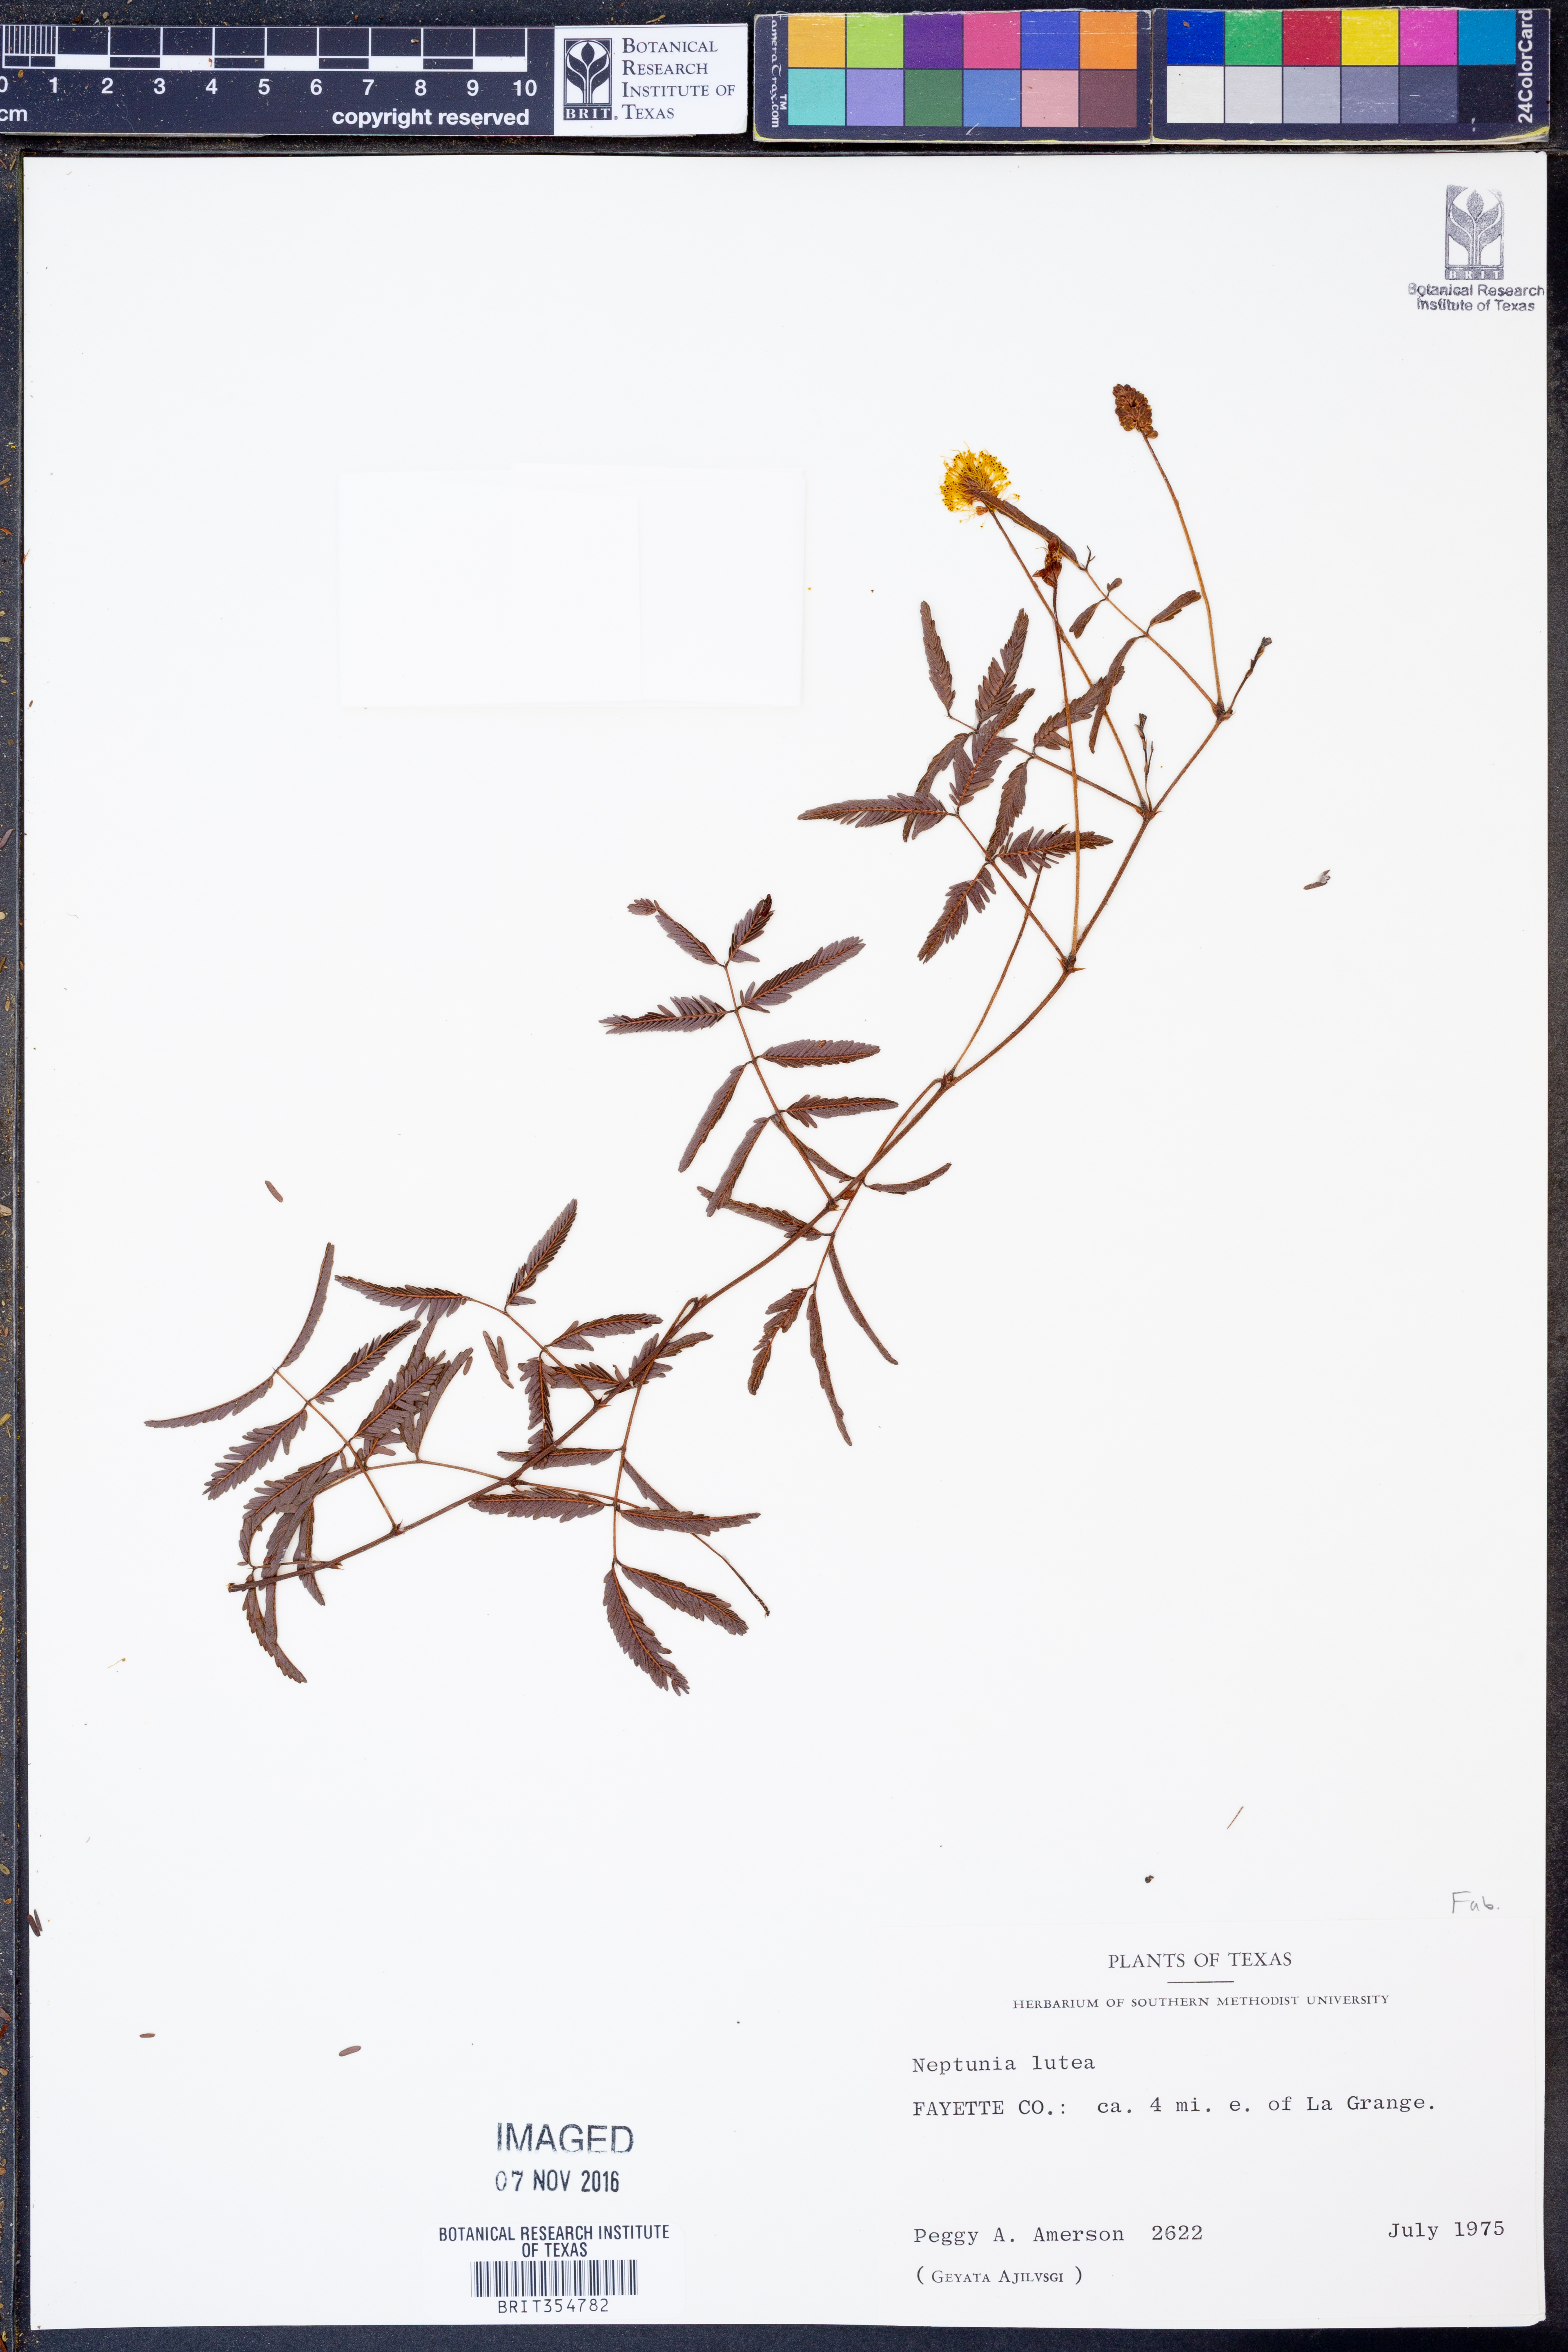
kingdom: Plantae
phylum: Tracheophyta
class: Magnoliopsida
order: Fabales
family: Fabaceae
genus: Neptunia
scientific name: Neptunia lutea
